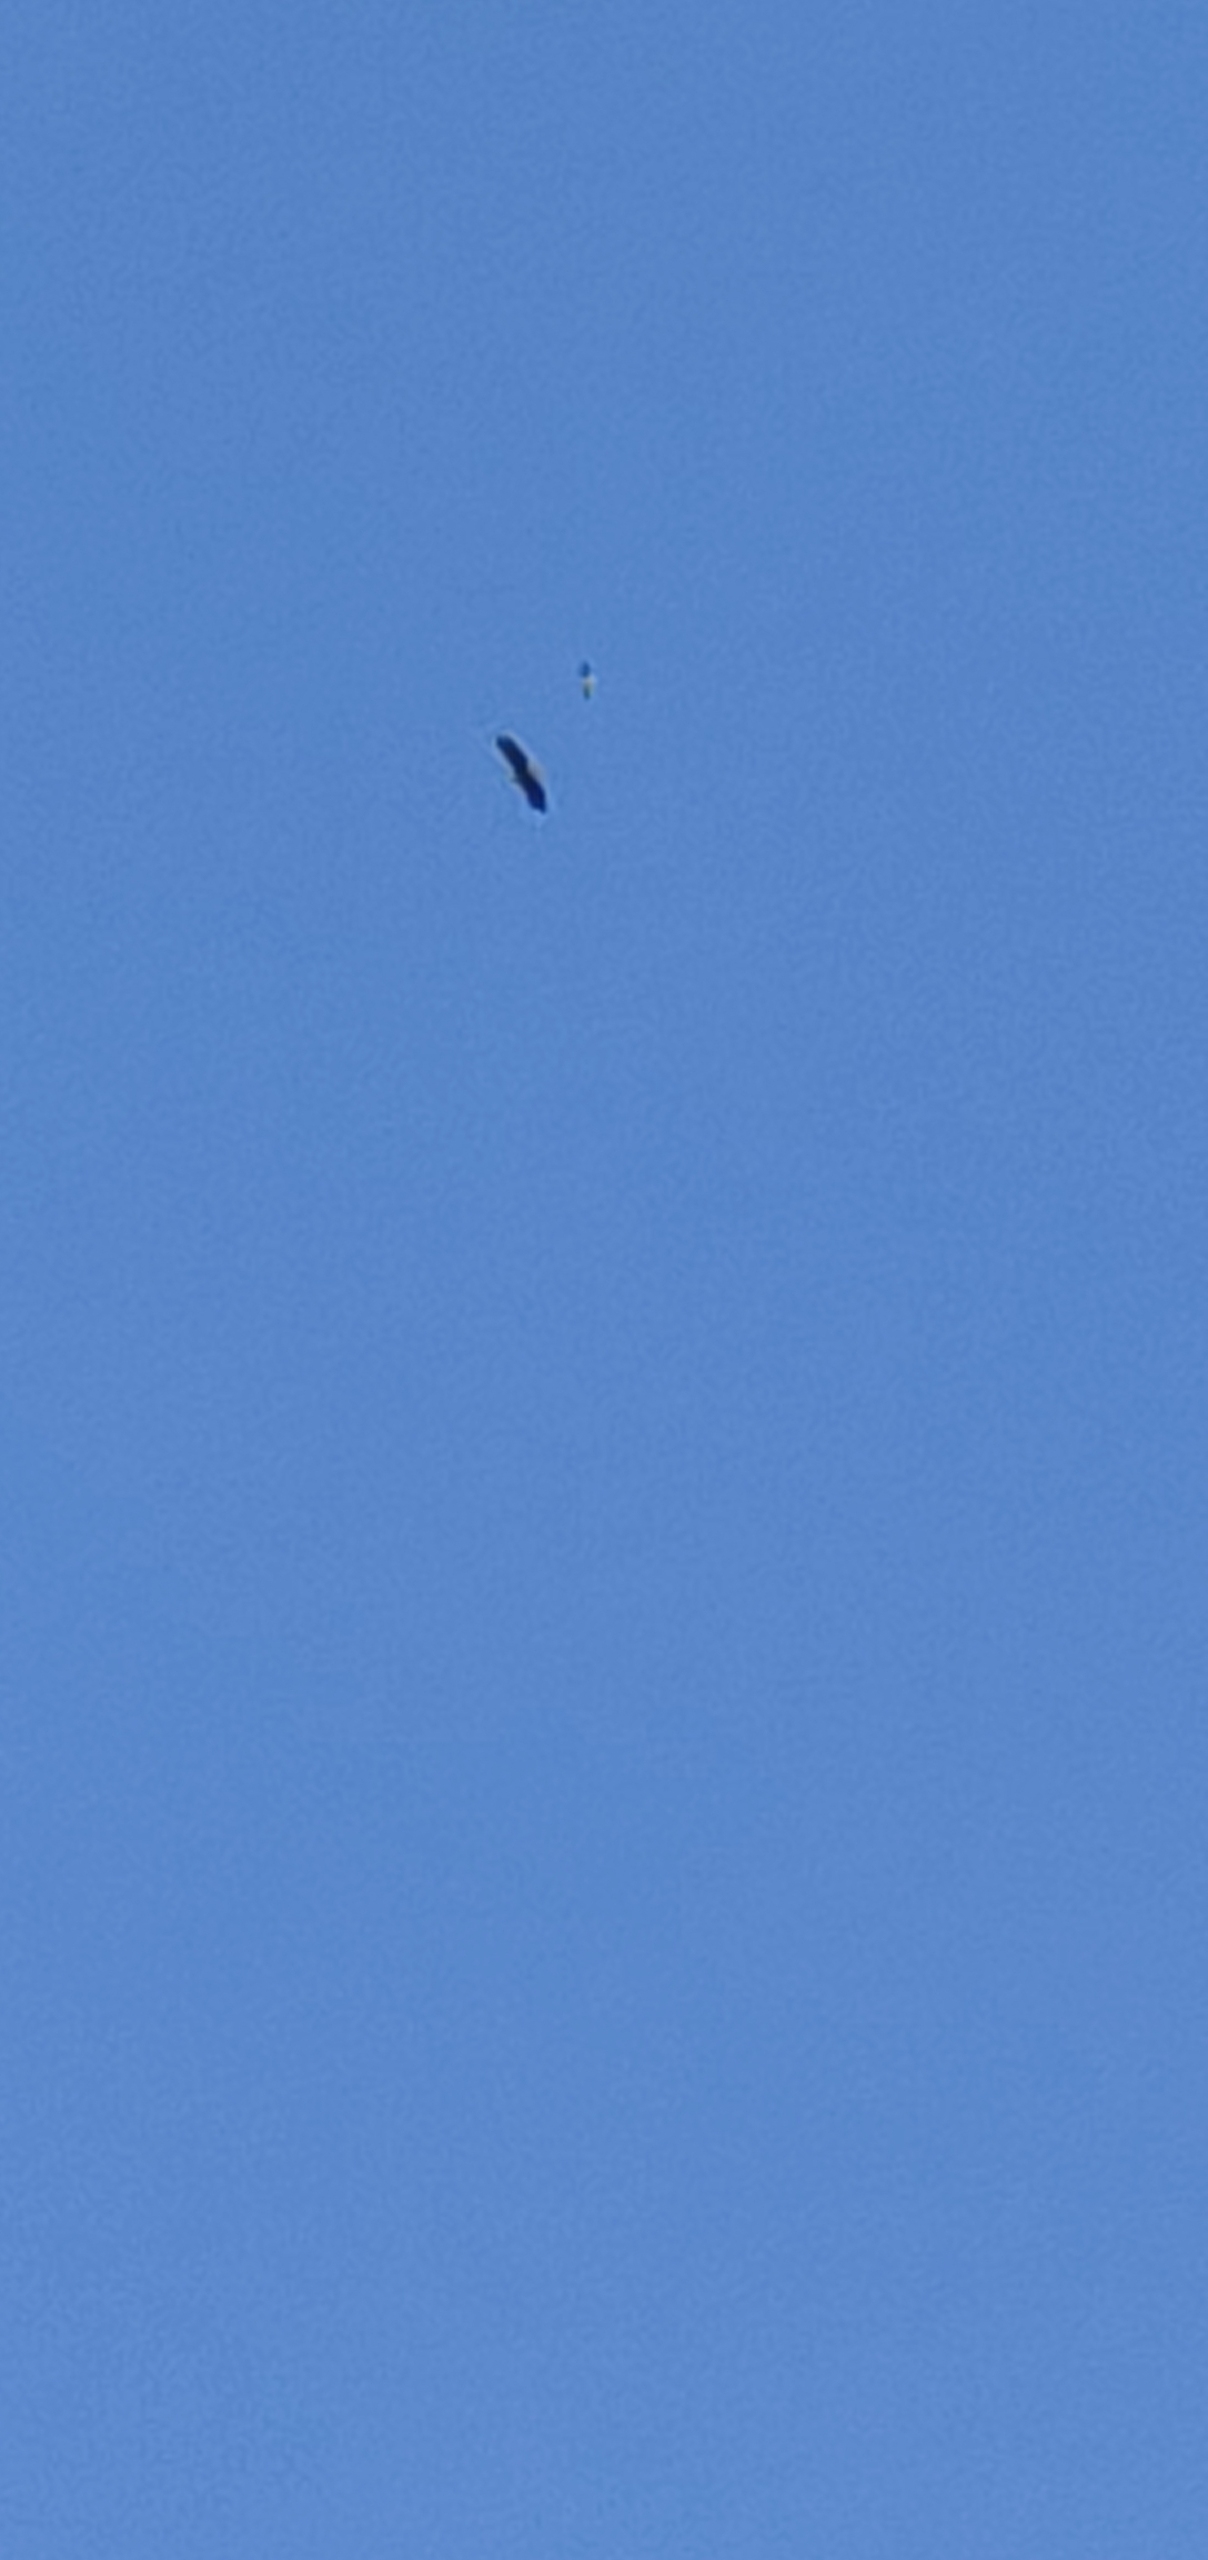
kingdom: Animalia
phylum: Chordata
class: Aves
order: Accipitriformes
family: Accipitridae
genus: Haliaeetus
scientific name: Haliaeetus albicilla
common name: Havørn
